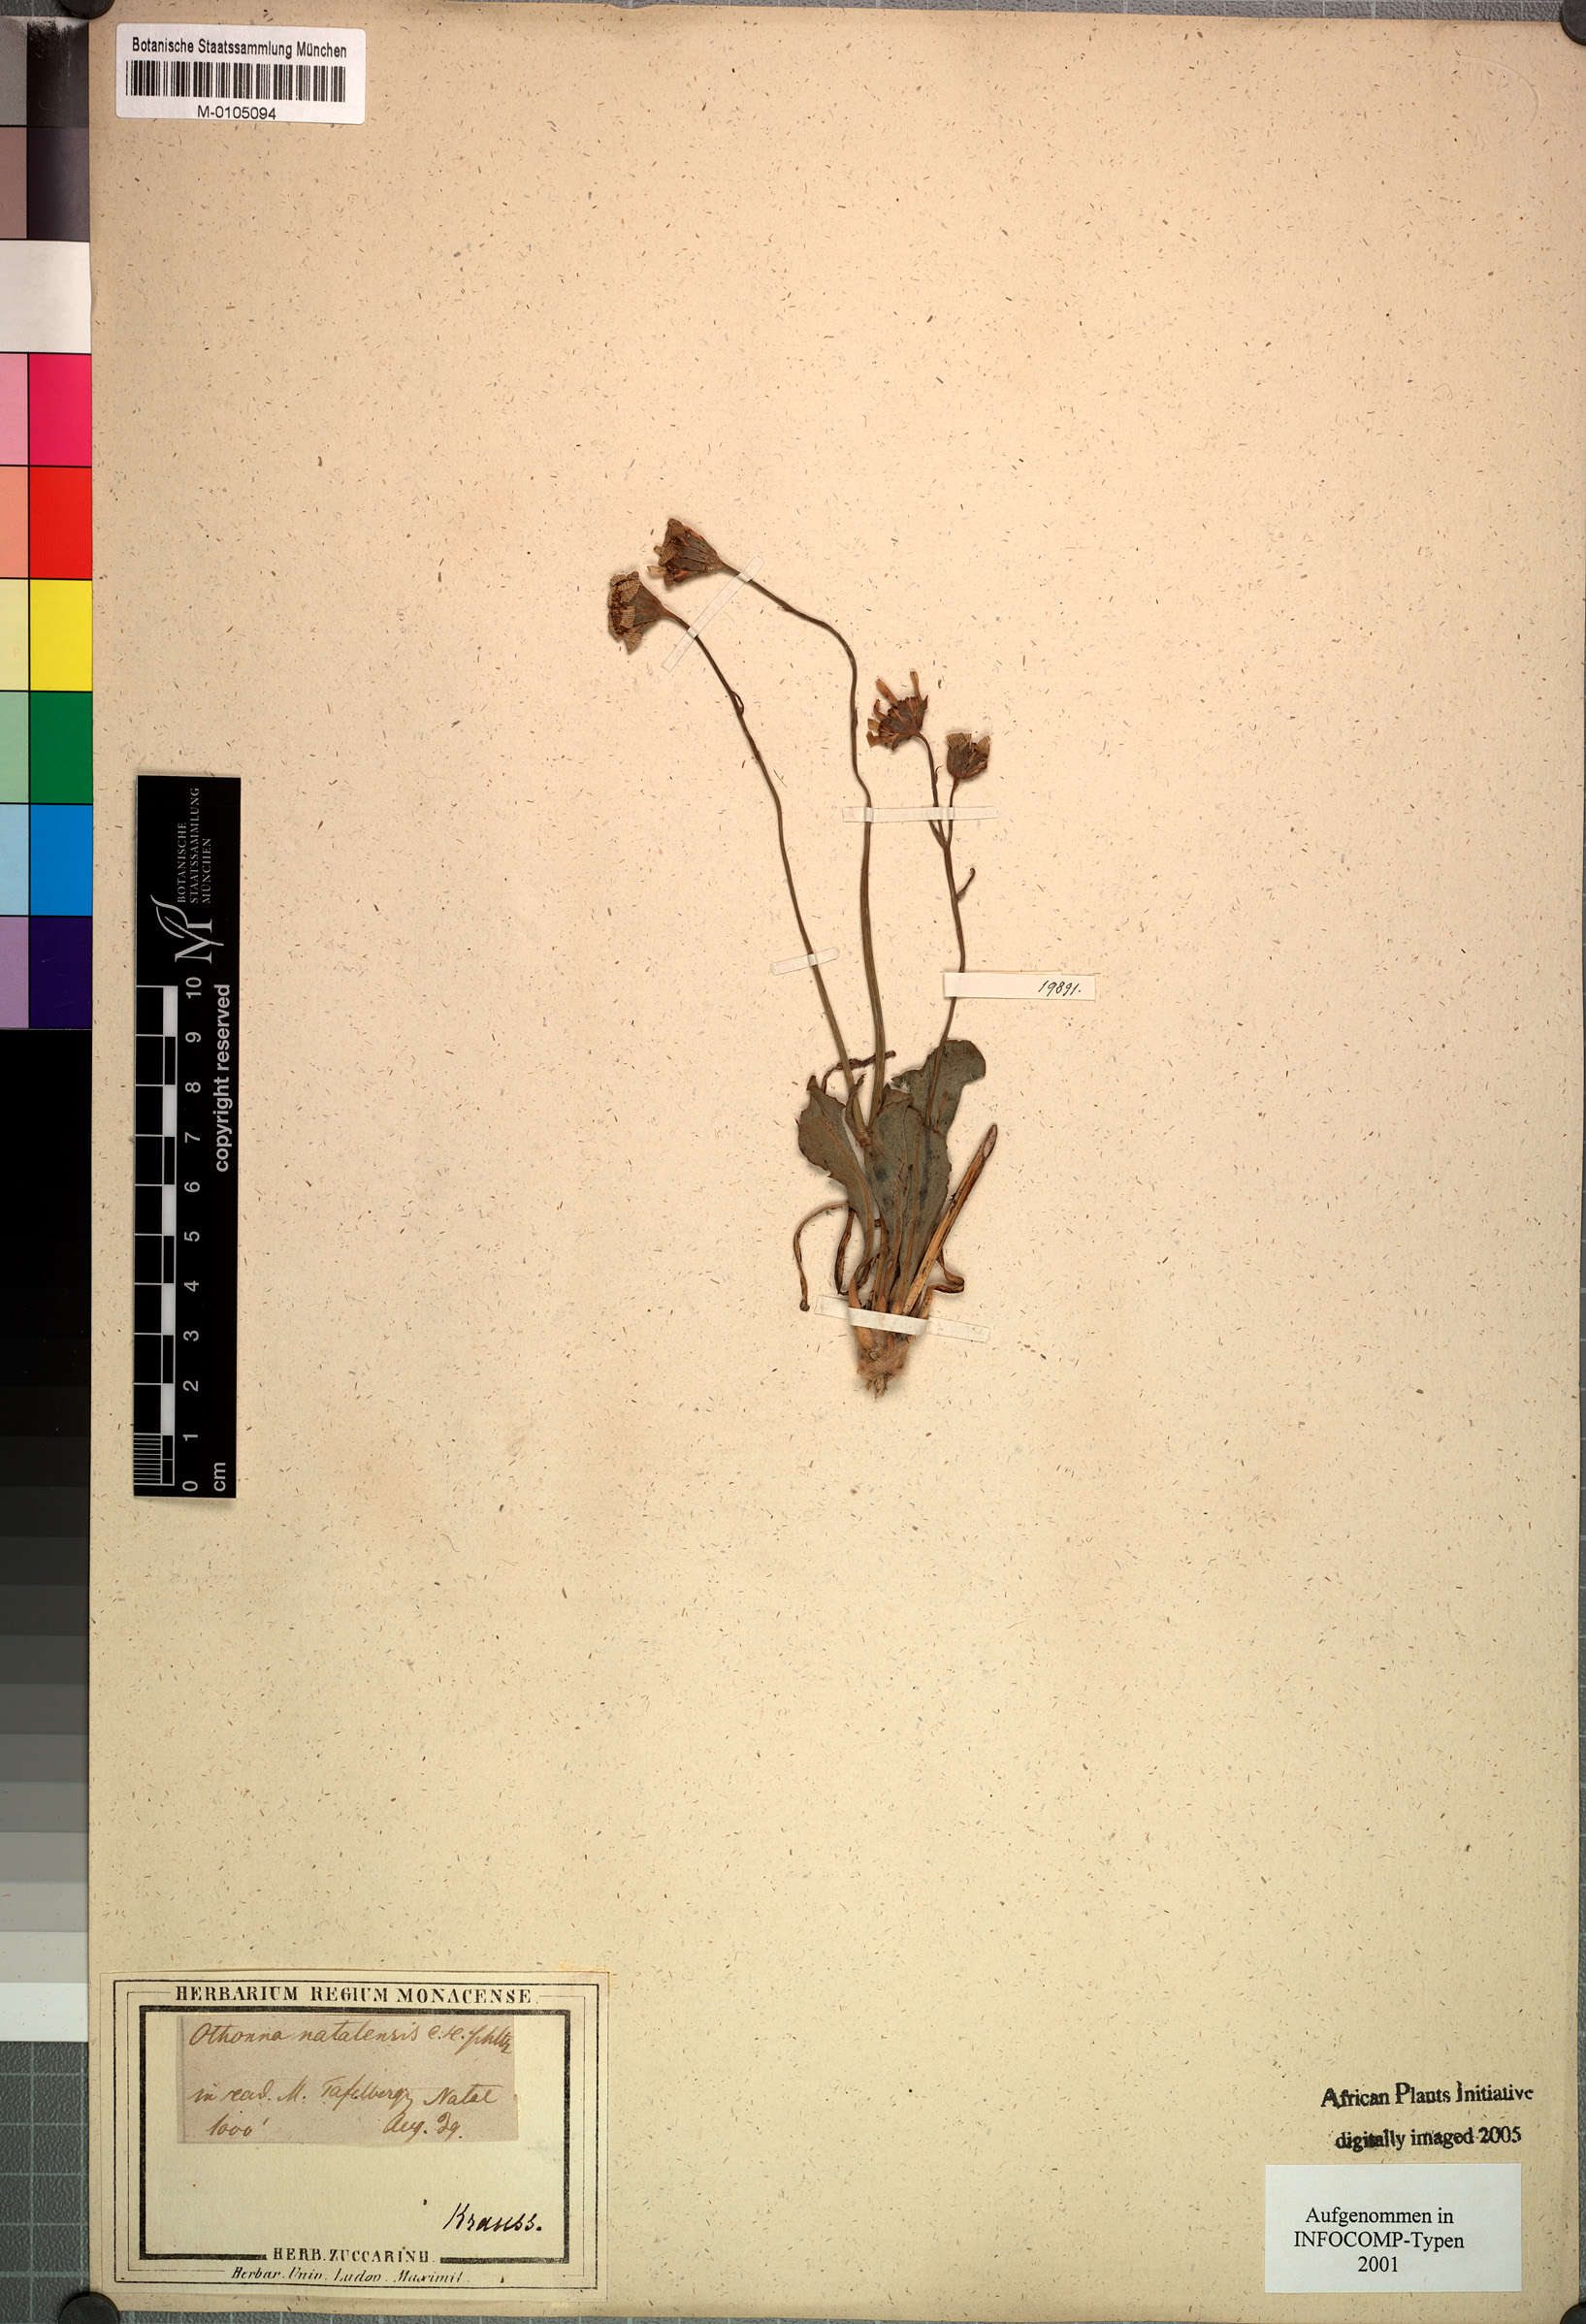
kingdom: Plantae
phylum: Tracheophyta
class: Magnoliopsida
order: Asterales
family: Asteraceae
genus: Othonna
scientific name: Othonna natalensis
